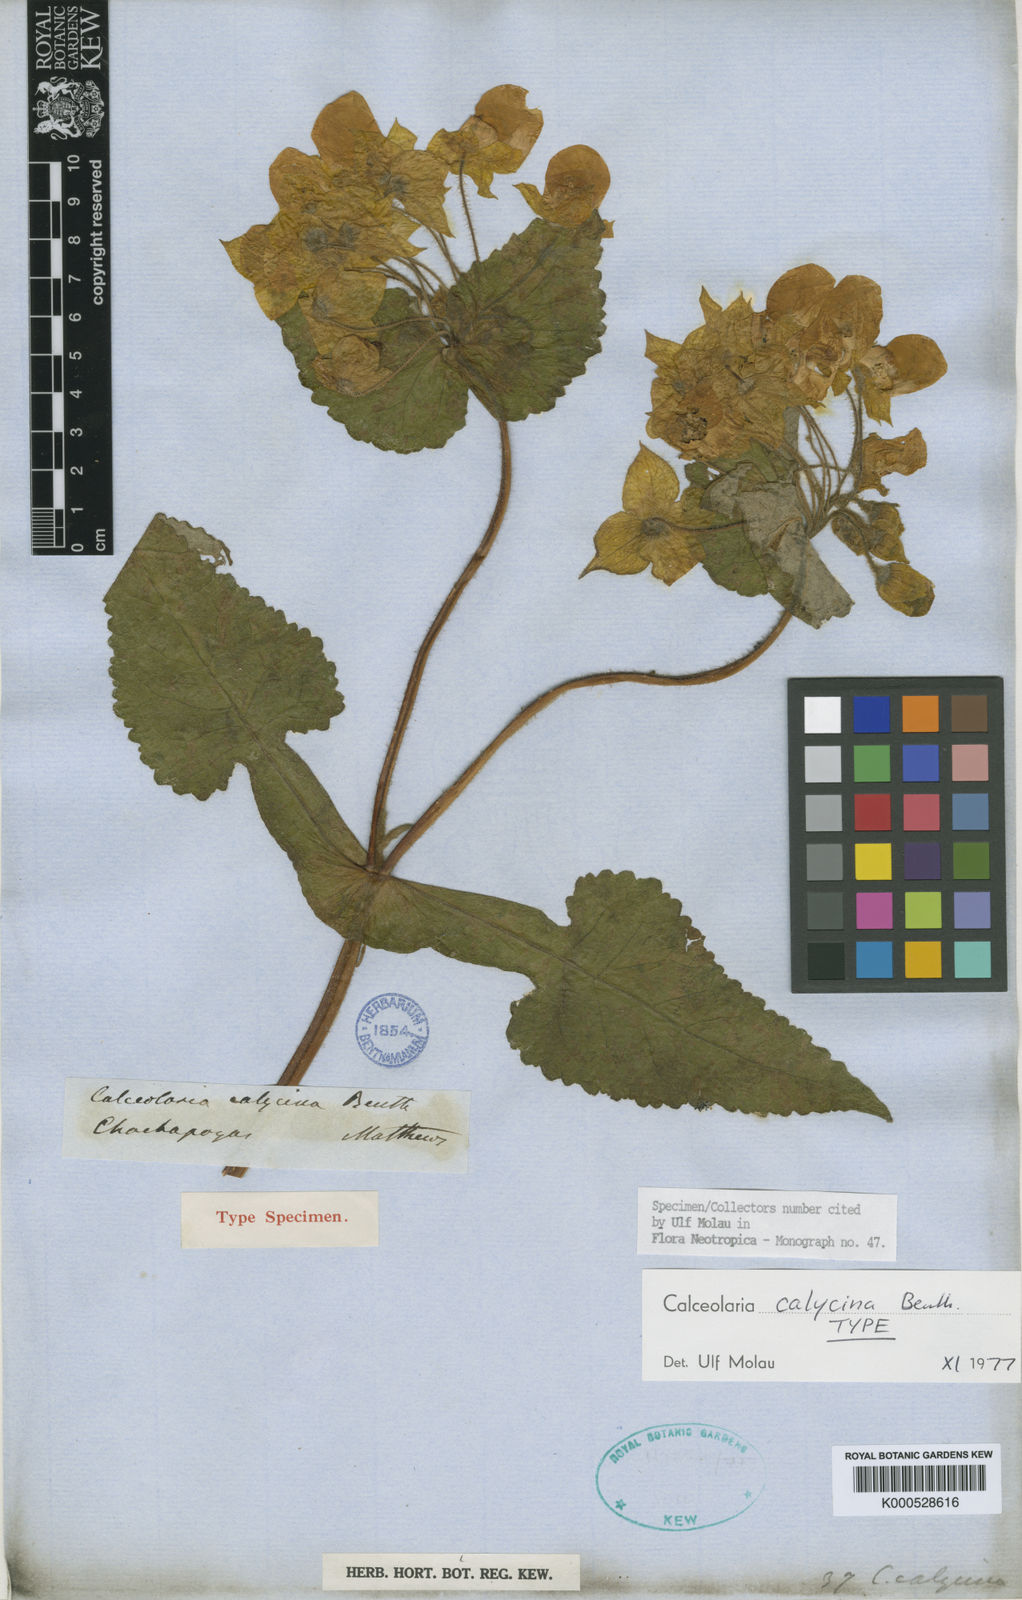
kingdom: Plantae
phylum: Tracheophyta
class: Magnoliopsida
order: Lamiales
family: Calceolariaceae
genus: Calceolaria
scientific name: Calceolaria calycina
